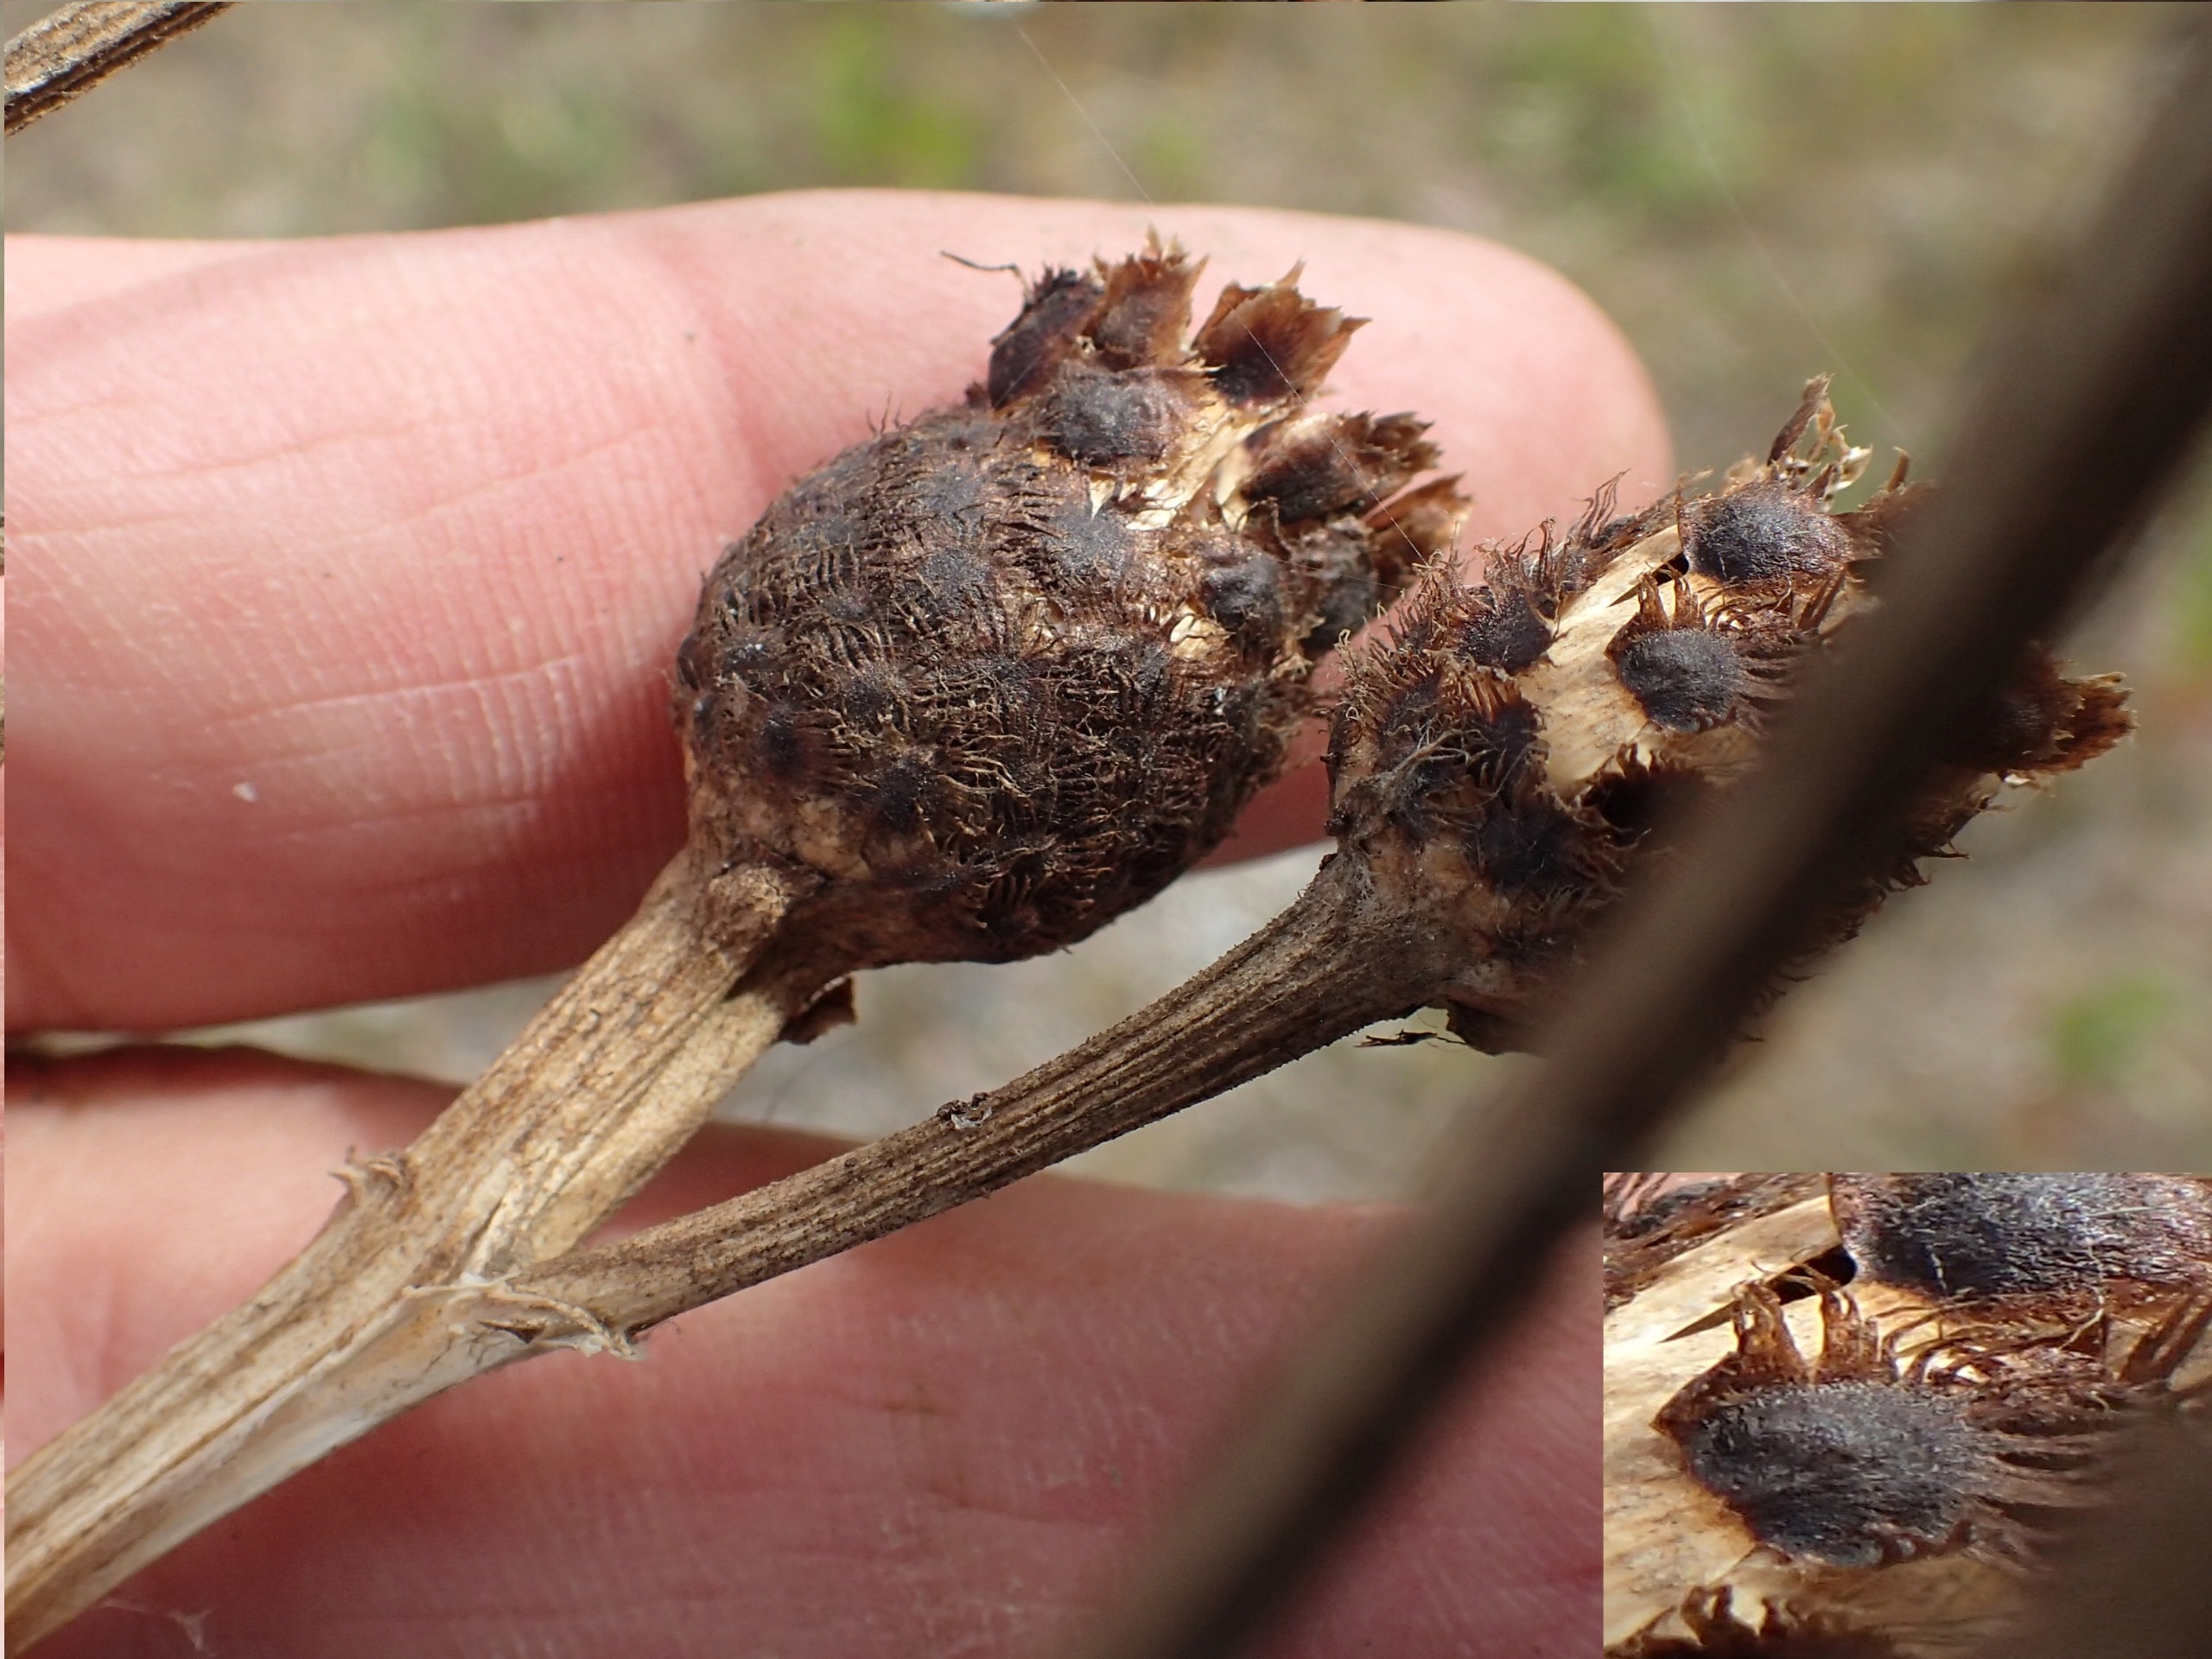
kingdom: Plantae
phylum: Tracheophyta
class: Magnoliopsida
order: Asterales
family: Asteraceae
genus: Centaurea
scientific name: Centaurea nigra
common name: Sorthoved-knopurt
